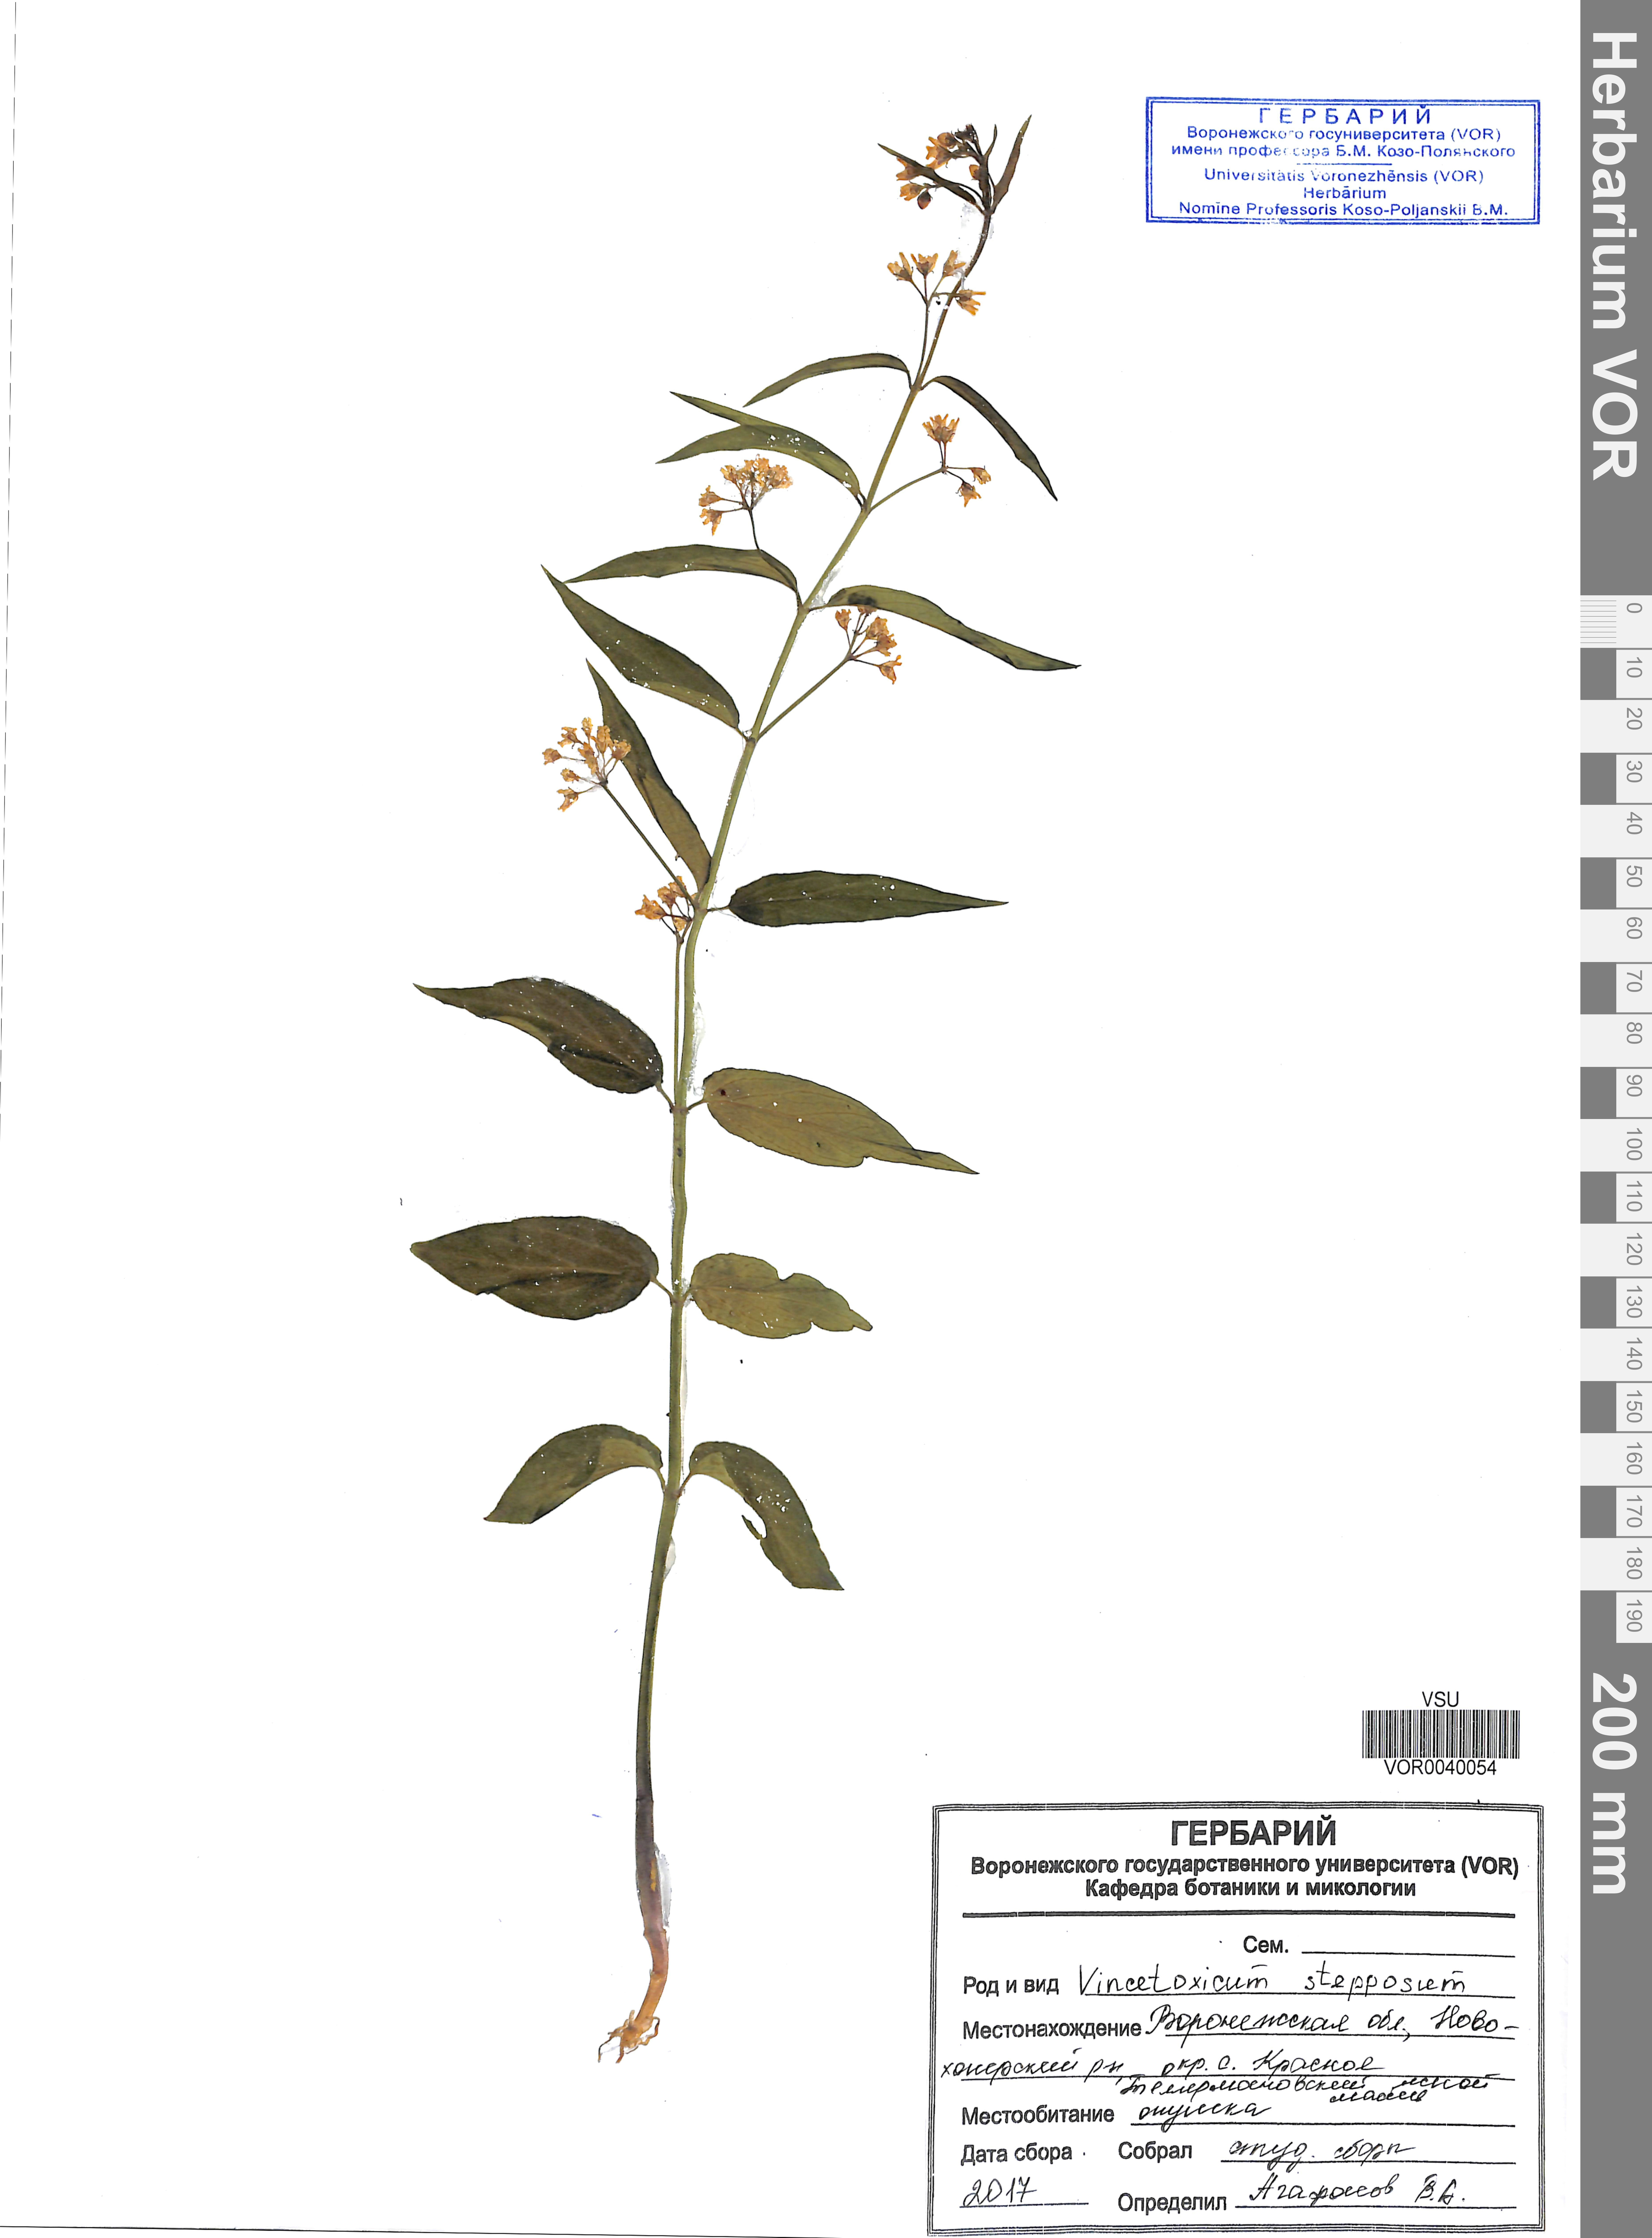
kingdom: Plantae
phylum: Tracheophyta
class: Magnoliopsida
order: Gentianales
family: Apocynaceae
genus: Vincetoxicum
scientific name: Vincetoxicum hirundinaria
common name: White swallowwort
